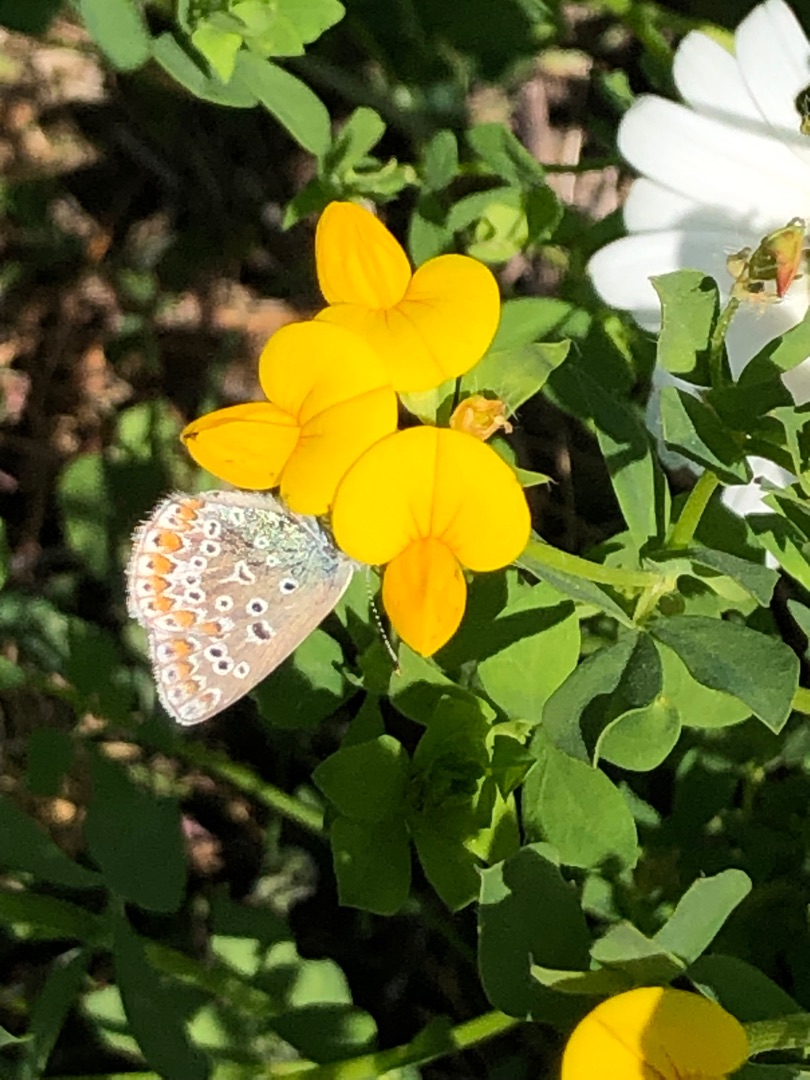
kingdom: Animalia
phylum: Arthropoda
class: Insecta
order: Lepidoptera
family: Lycaenidae
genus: Polyommatus
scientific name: Polyommatus icarus
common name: Almindelig blåfugl
